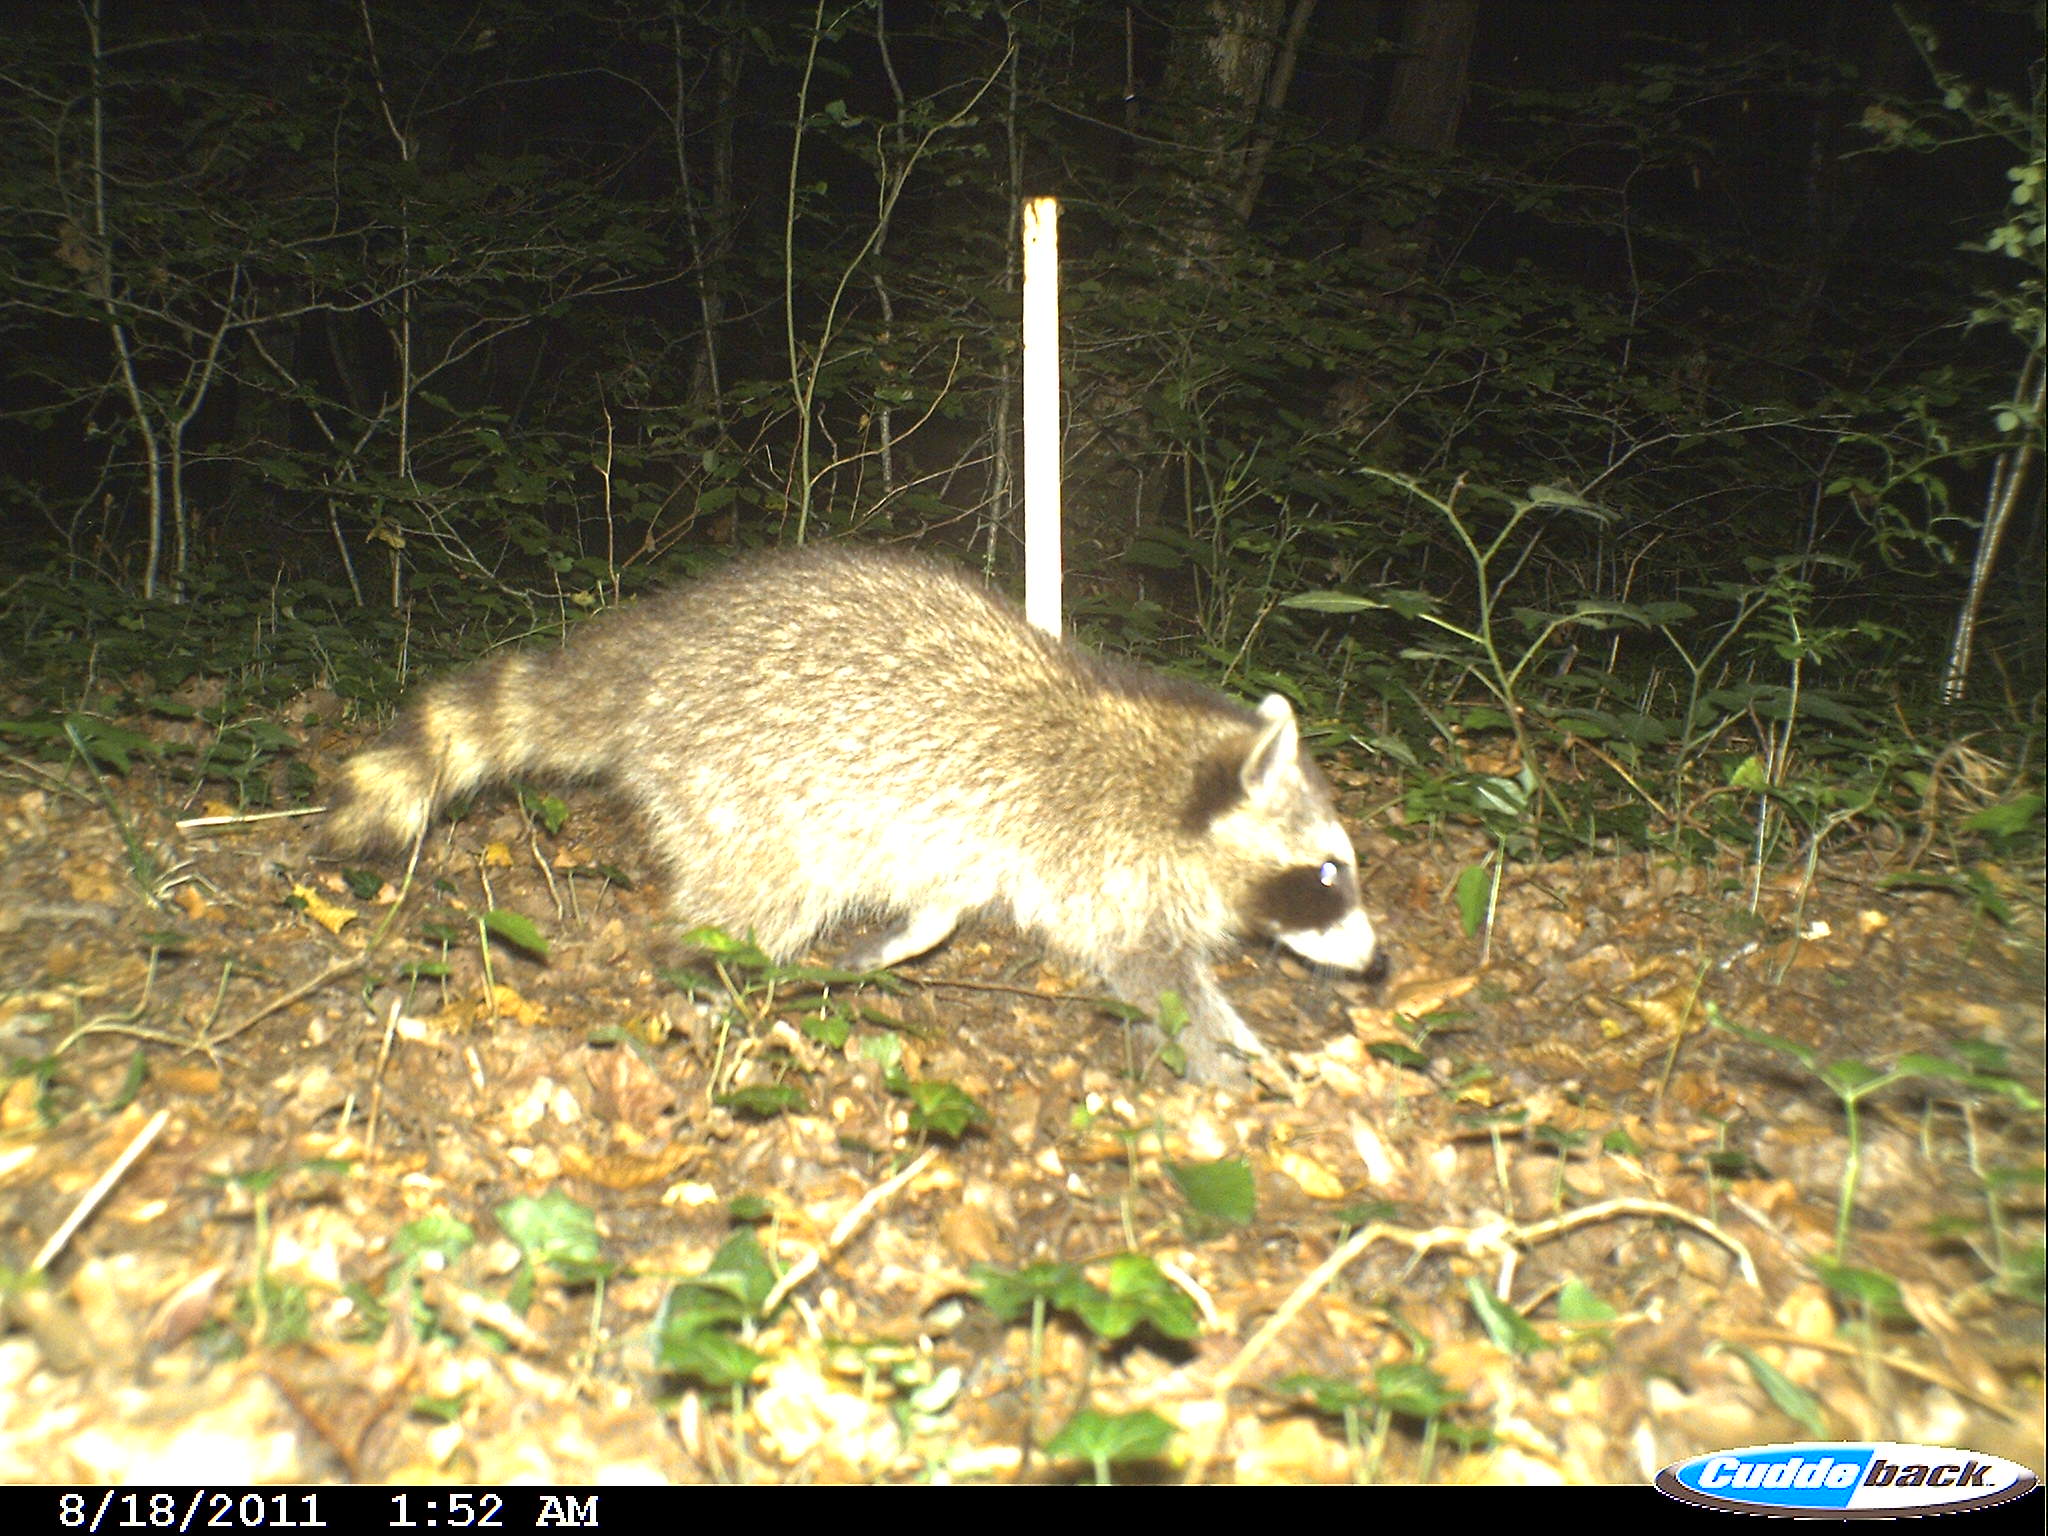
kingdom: Animalia
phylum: Chordata
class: Mammalia
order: Carnivora
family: Procyonidae
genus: Procyon
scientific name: Procyon lotor
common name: Raccoon
